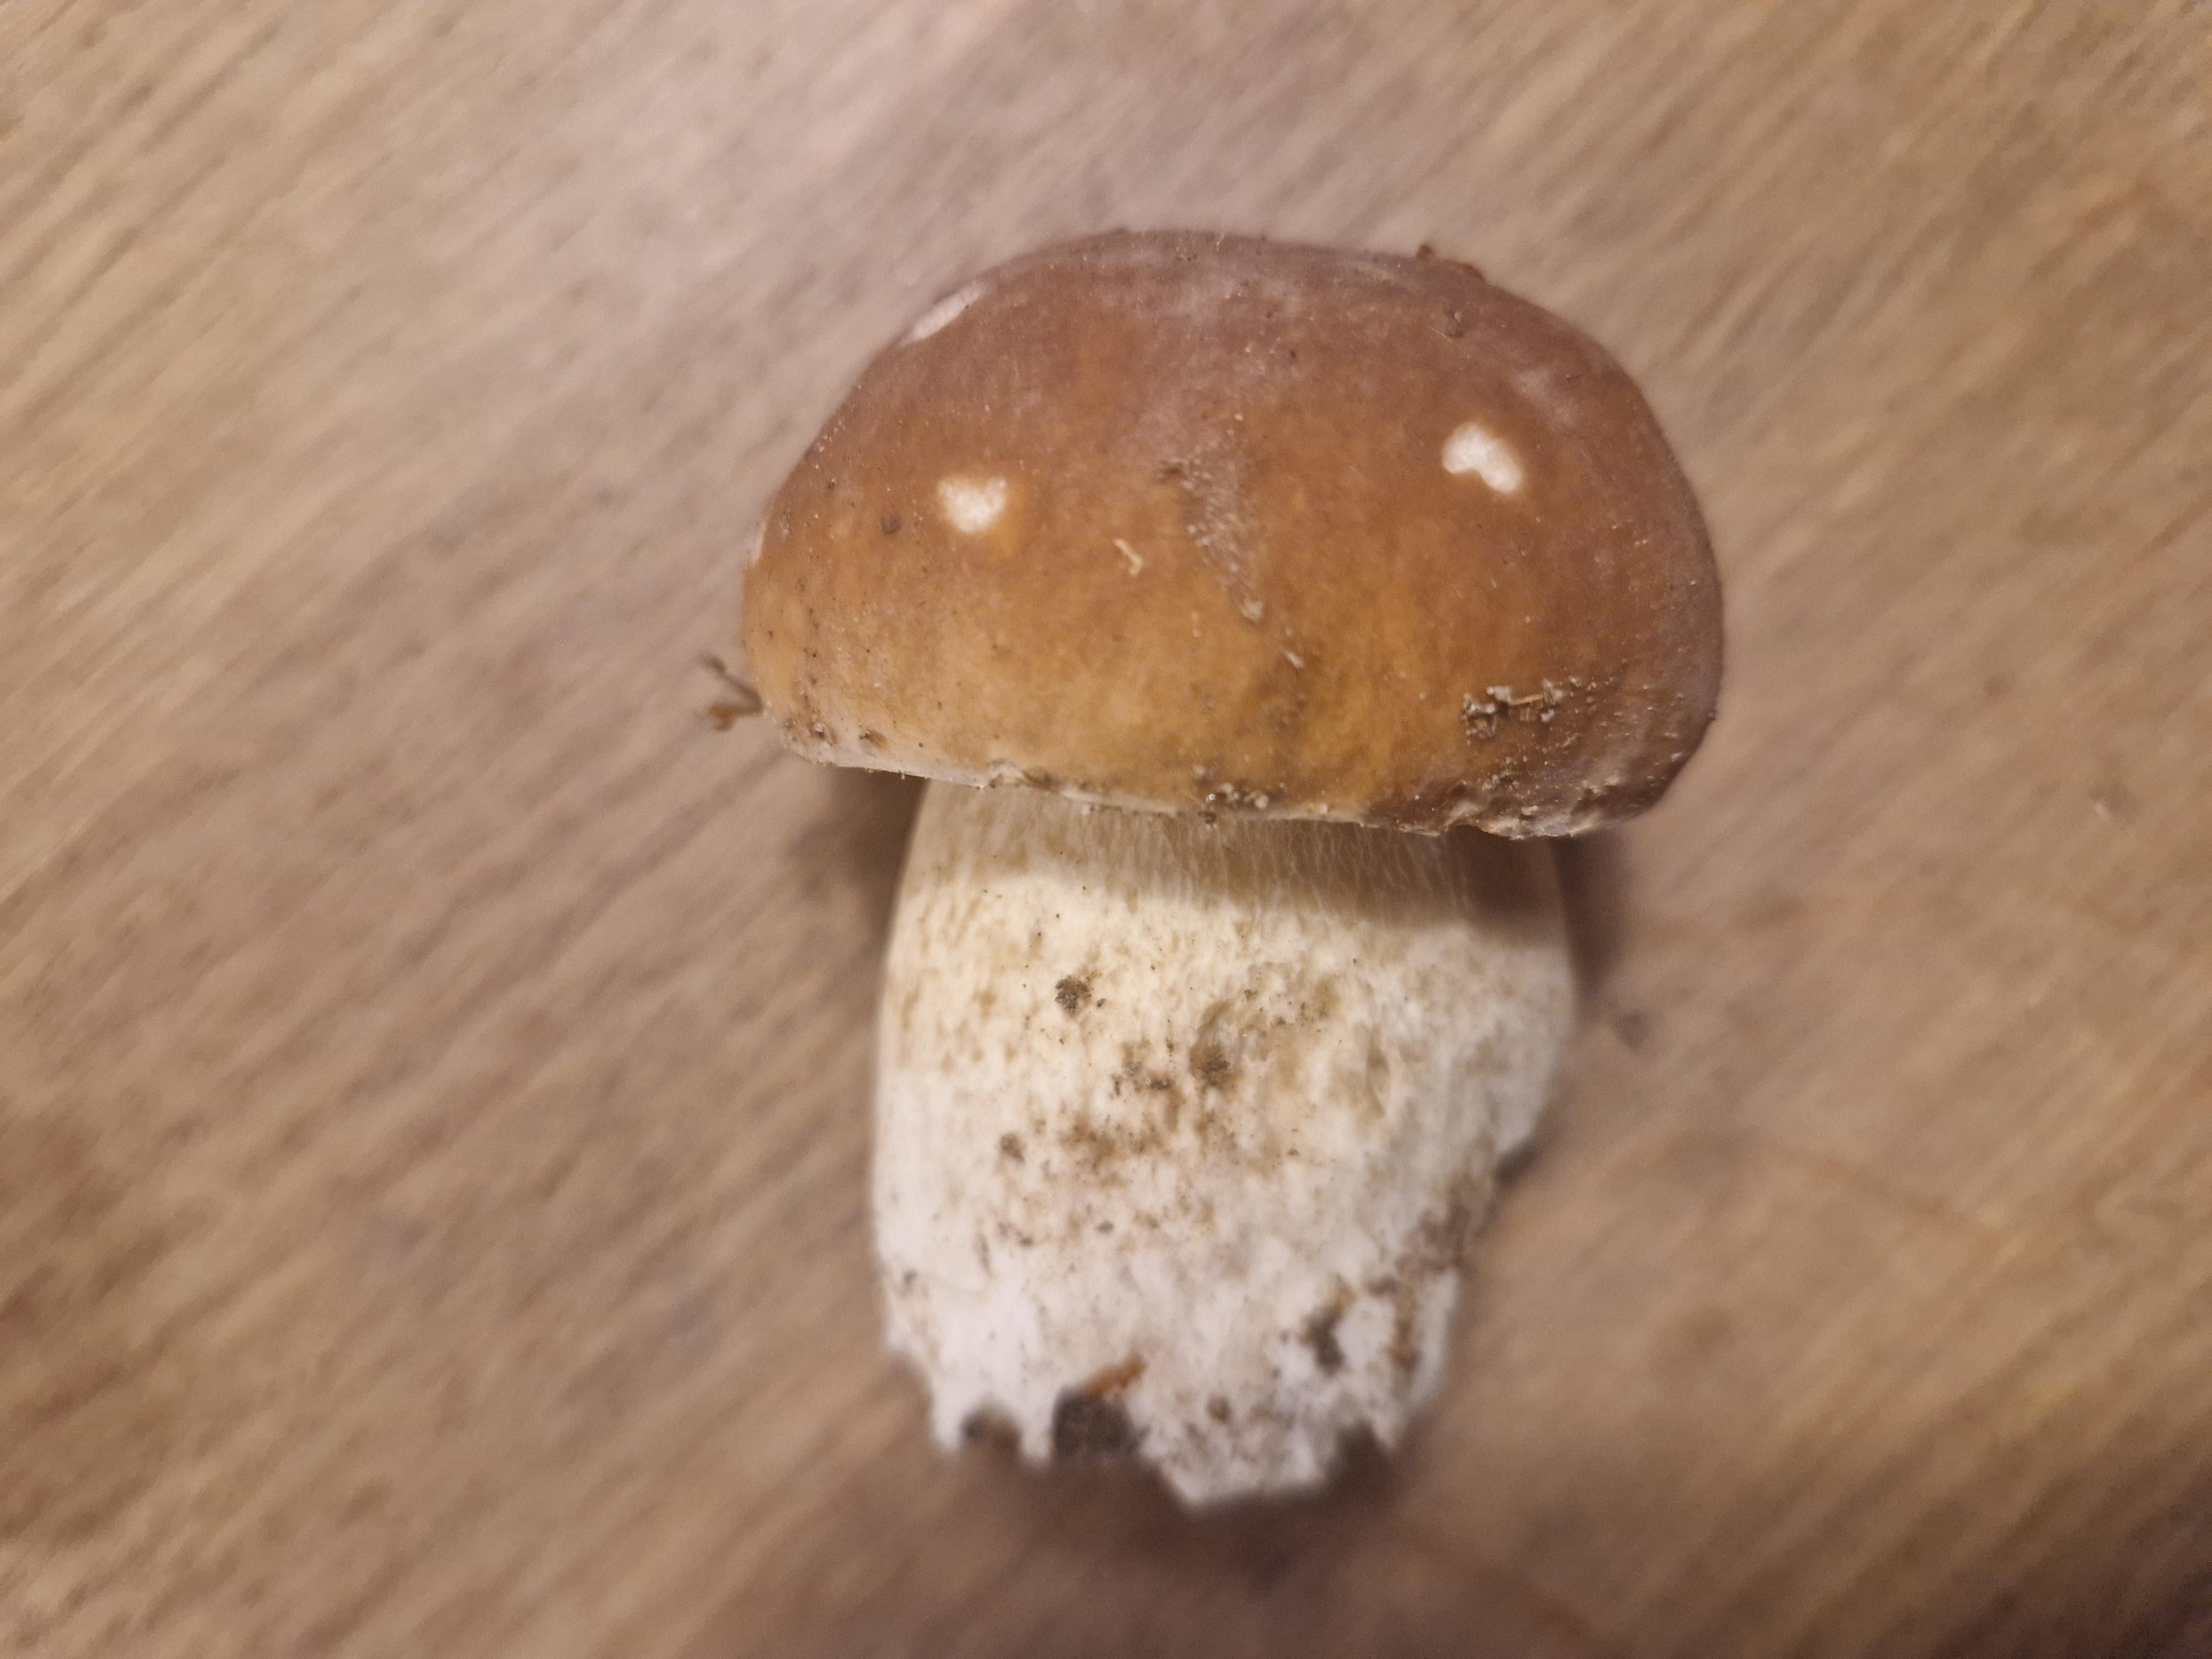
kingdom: Fungi
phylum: Basidiomycota
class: Agaricomycetes
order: Boletales
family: Boletaceae
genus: Boletus
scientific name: Boletus edulis
